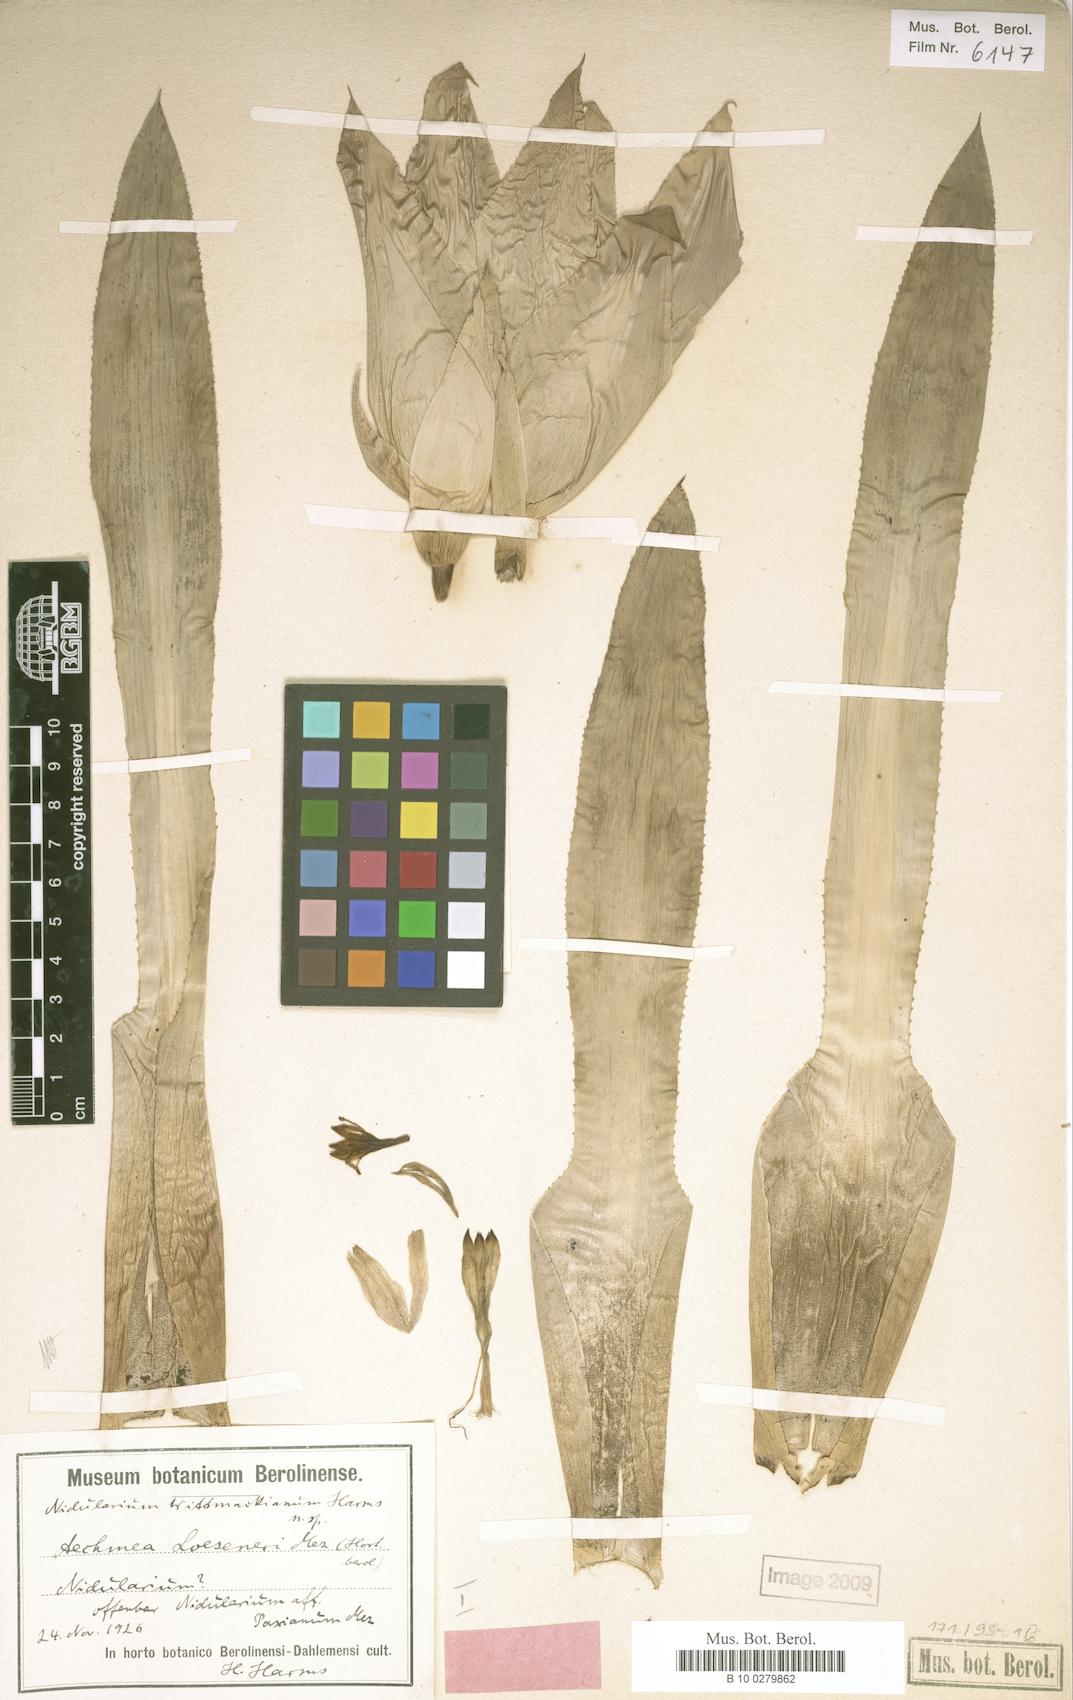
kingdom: Plantae
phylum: Tracheophyta
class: Liliopsida
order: Poales
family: Bromeliaceae
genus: Nidularium
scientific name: Nidularium longiflorum
